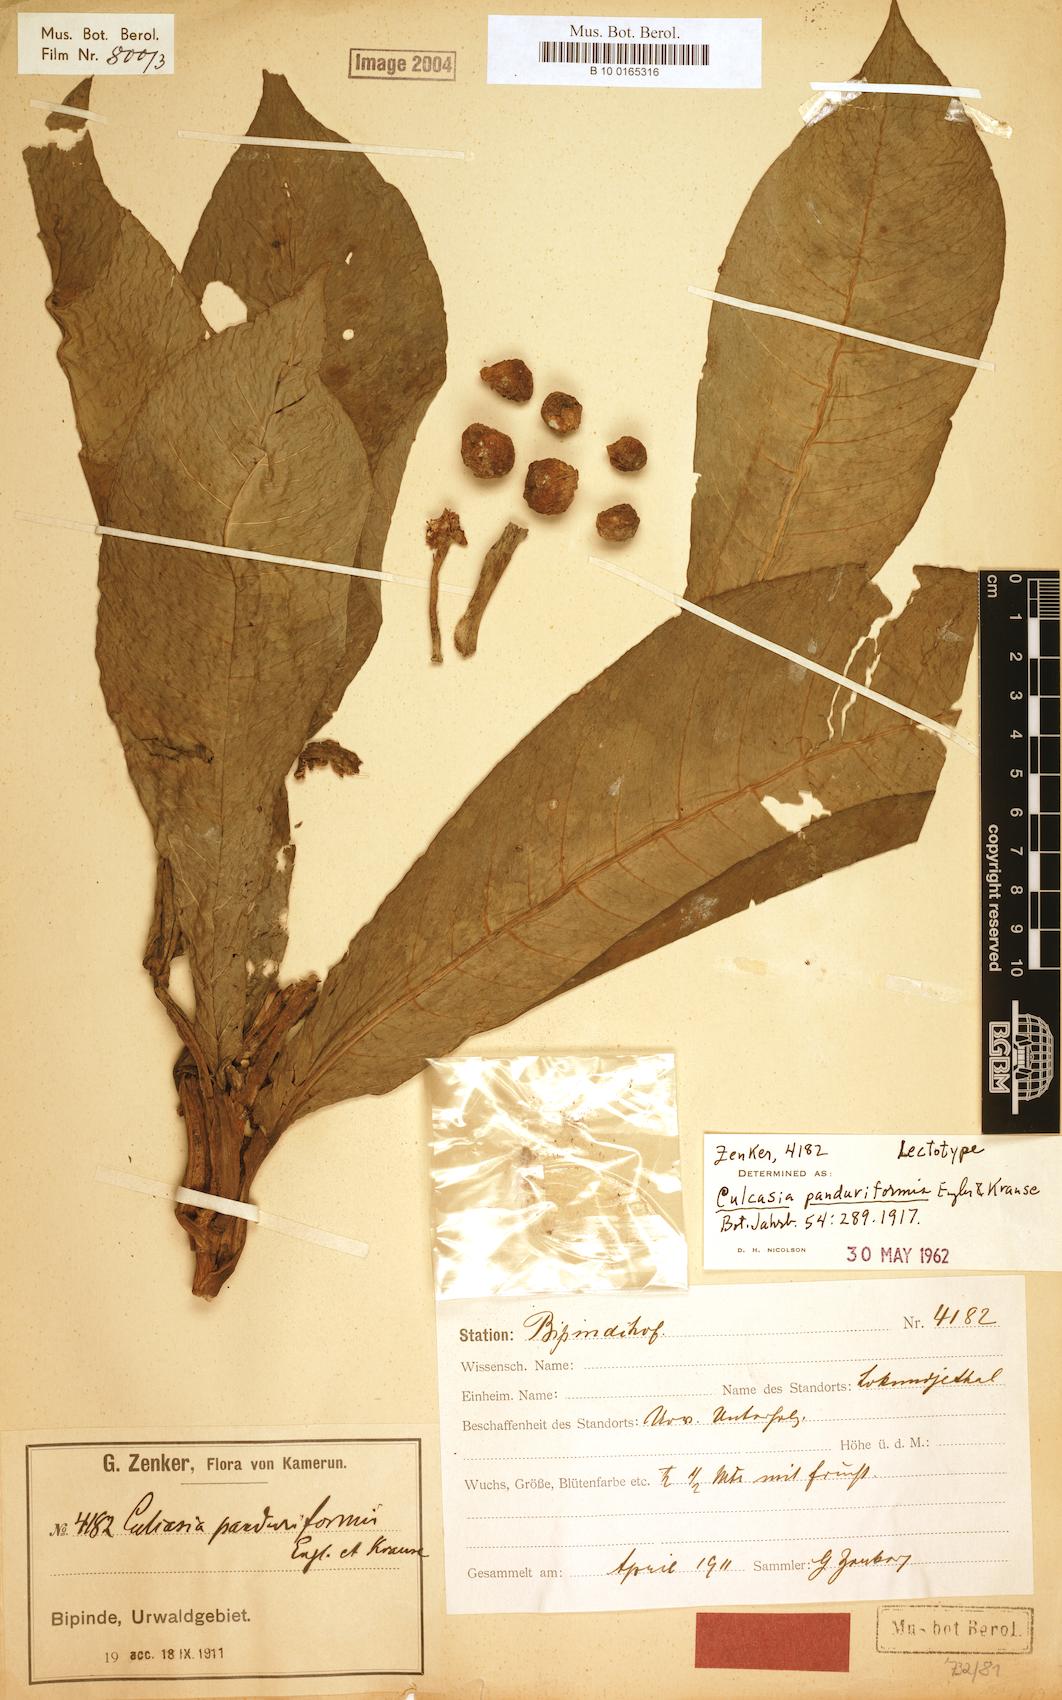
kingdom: Plantae
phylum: Tracheophyta
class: Liliopsida
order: Alismatales
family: Araceae
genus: Culcasia
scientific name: Culcasia panduriformis
